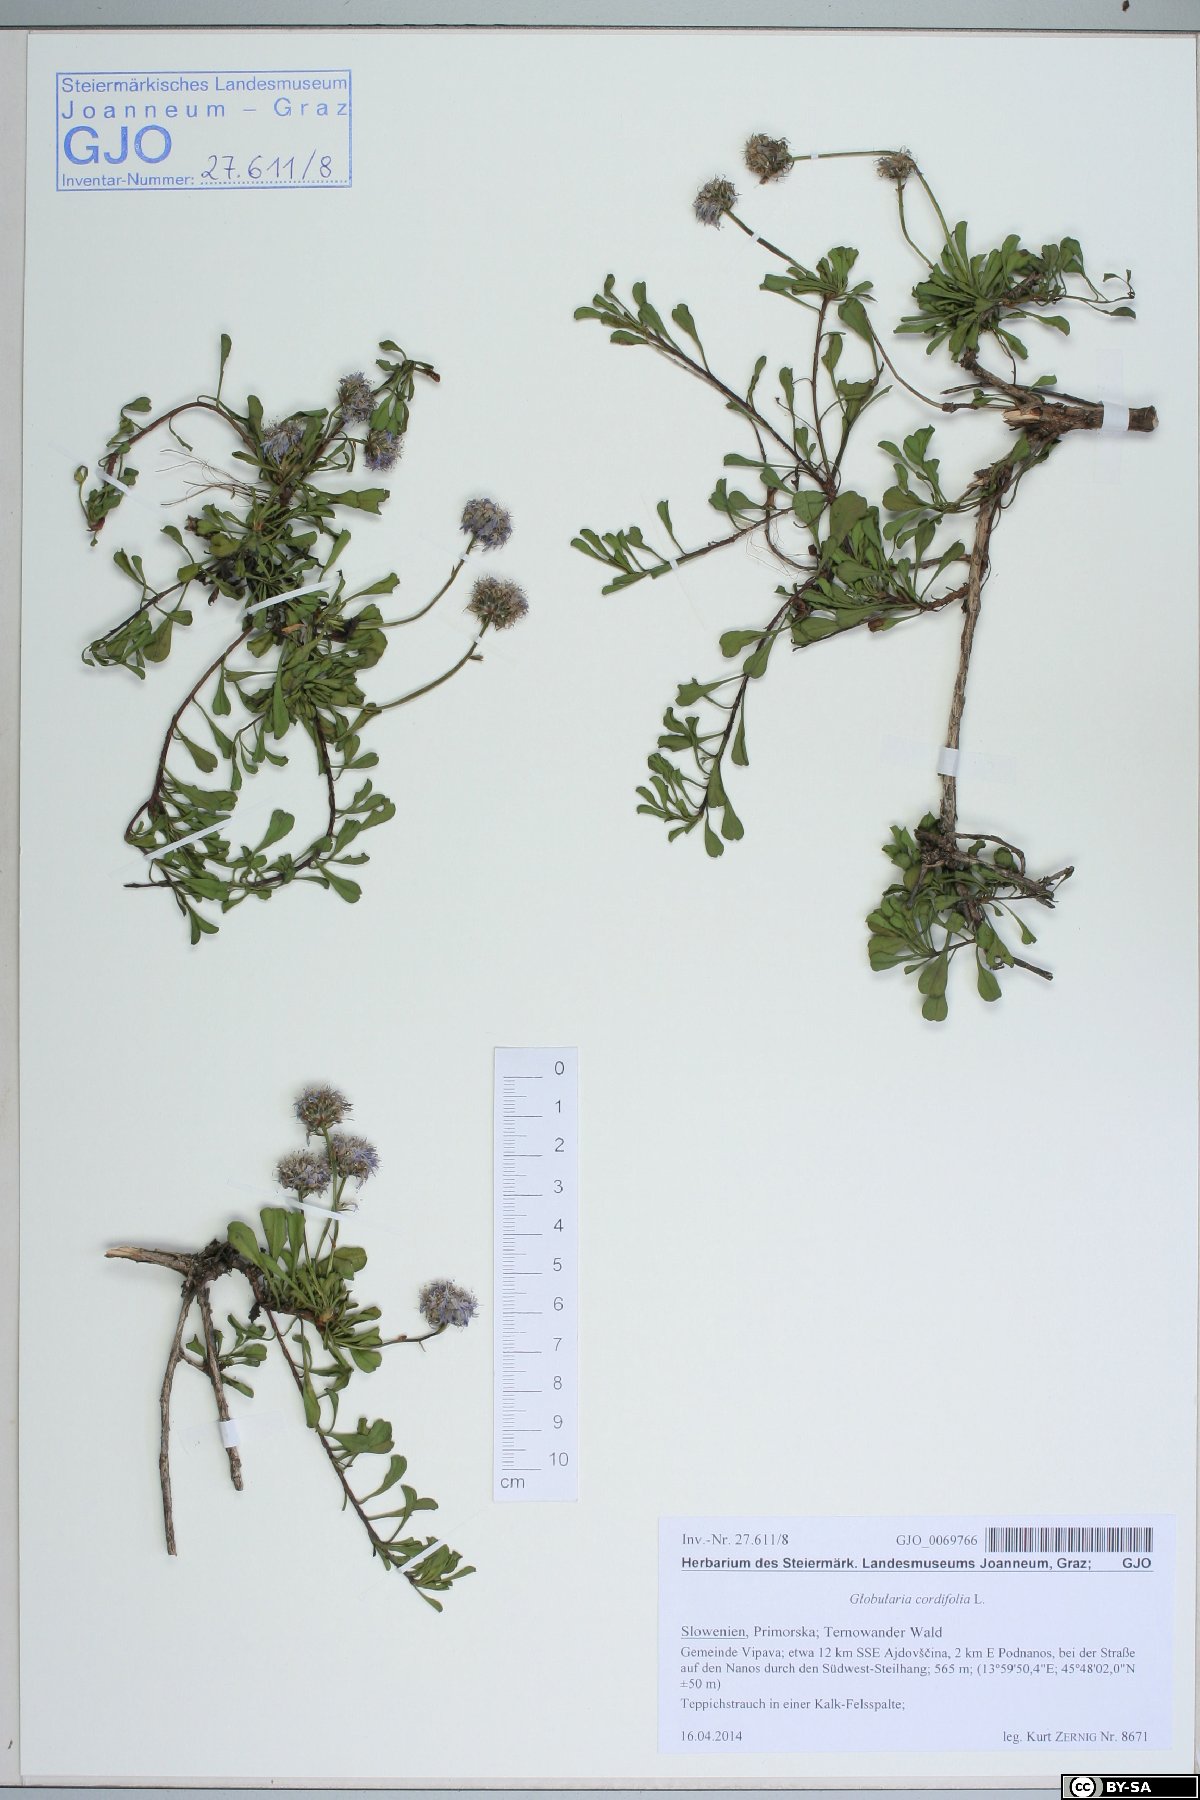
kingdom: Plantae
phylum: Tracheophyta
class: Magnoliopsida
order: Lamiales
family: Plantaginaceae
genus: Globularia
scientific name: Globularia cordifolia
